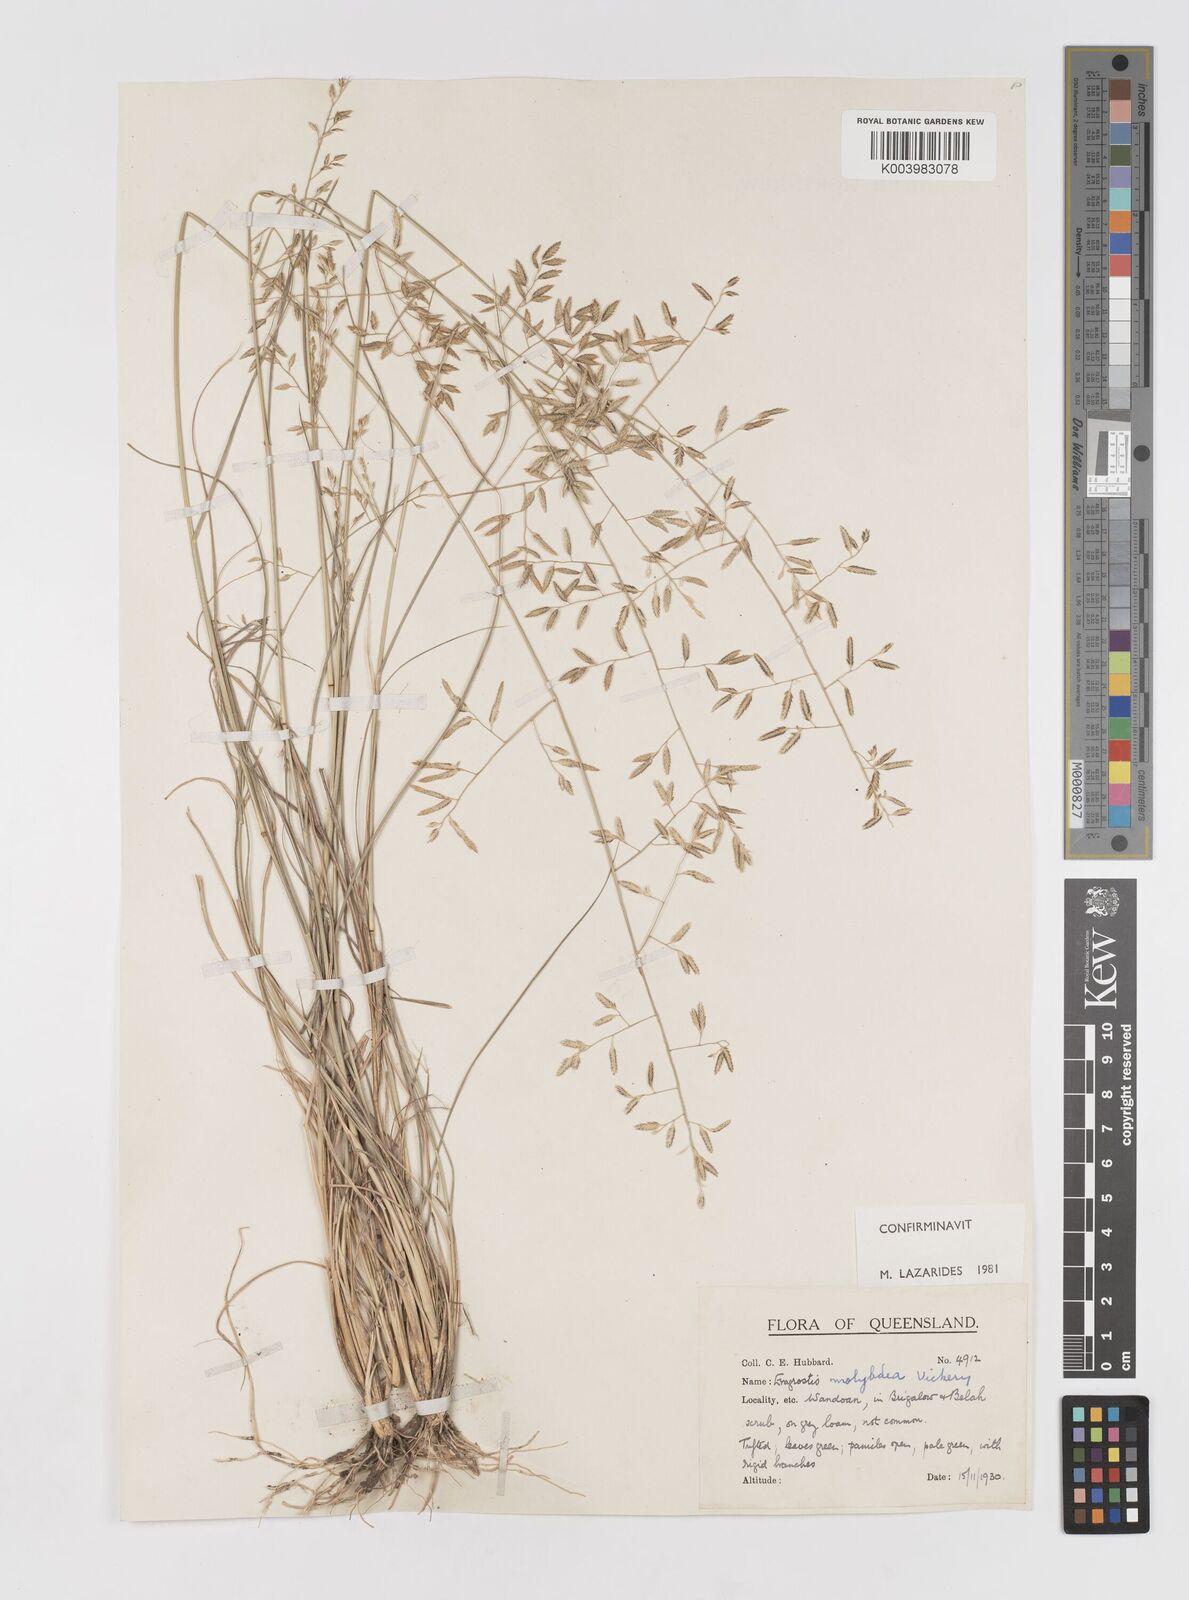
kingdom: Plantae
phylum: Tracheophyta
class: Liliopsida
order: Poales
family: Poaceae
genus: Eragrostis
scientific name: Eragrostis leptostachya
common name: Australian lovegrass
